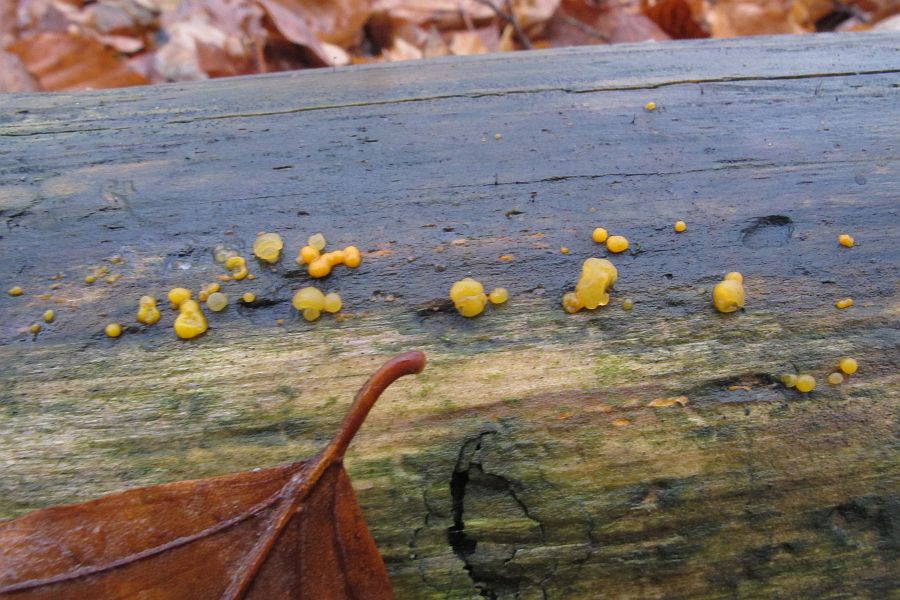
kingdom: Fungi
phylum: Basidiomycota
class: Dacrymycetes
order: Dacrymycetales
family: Dacrymycetaceae
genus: Dacrymyces
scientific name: Dacrymyces stillatus
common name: almindelig tåresvamp
